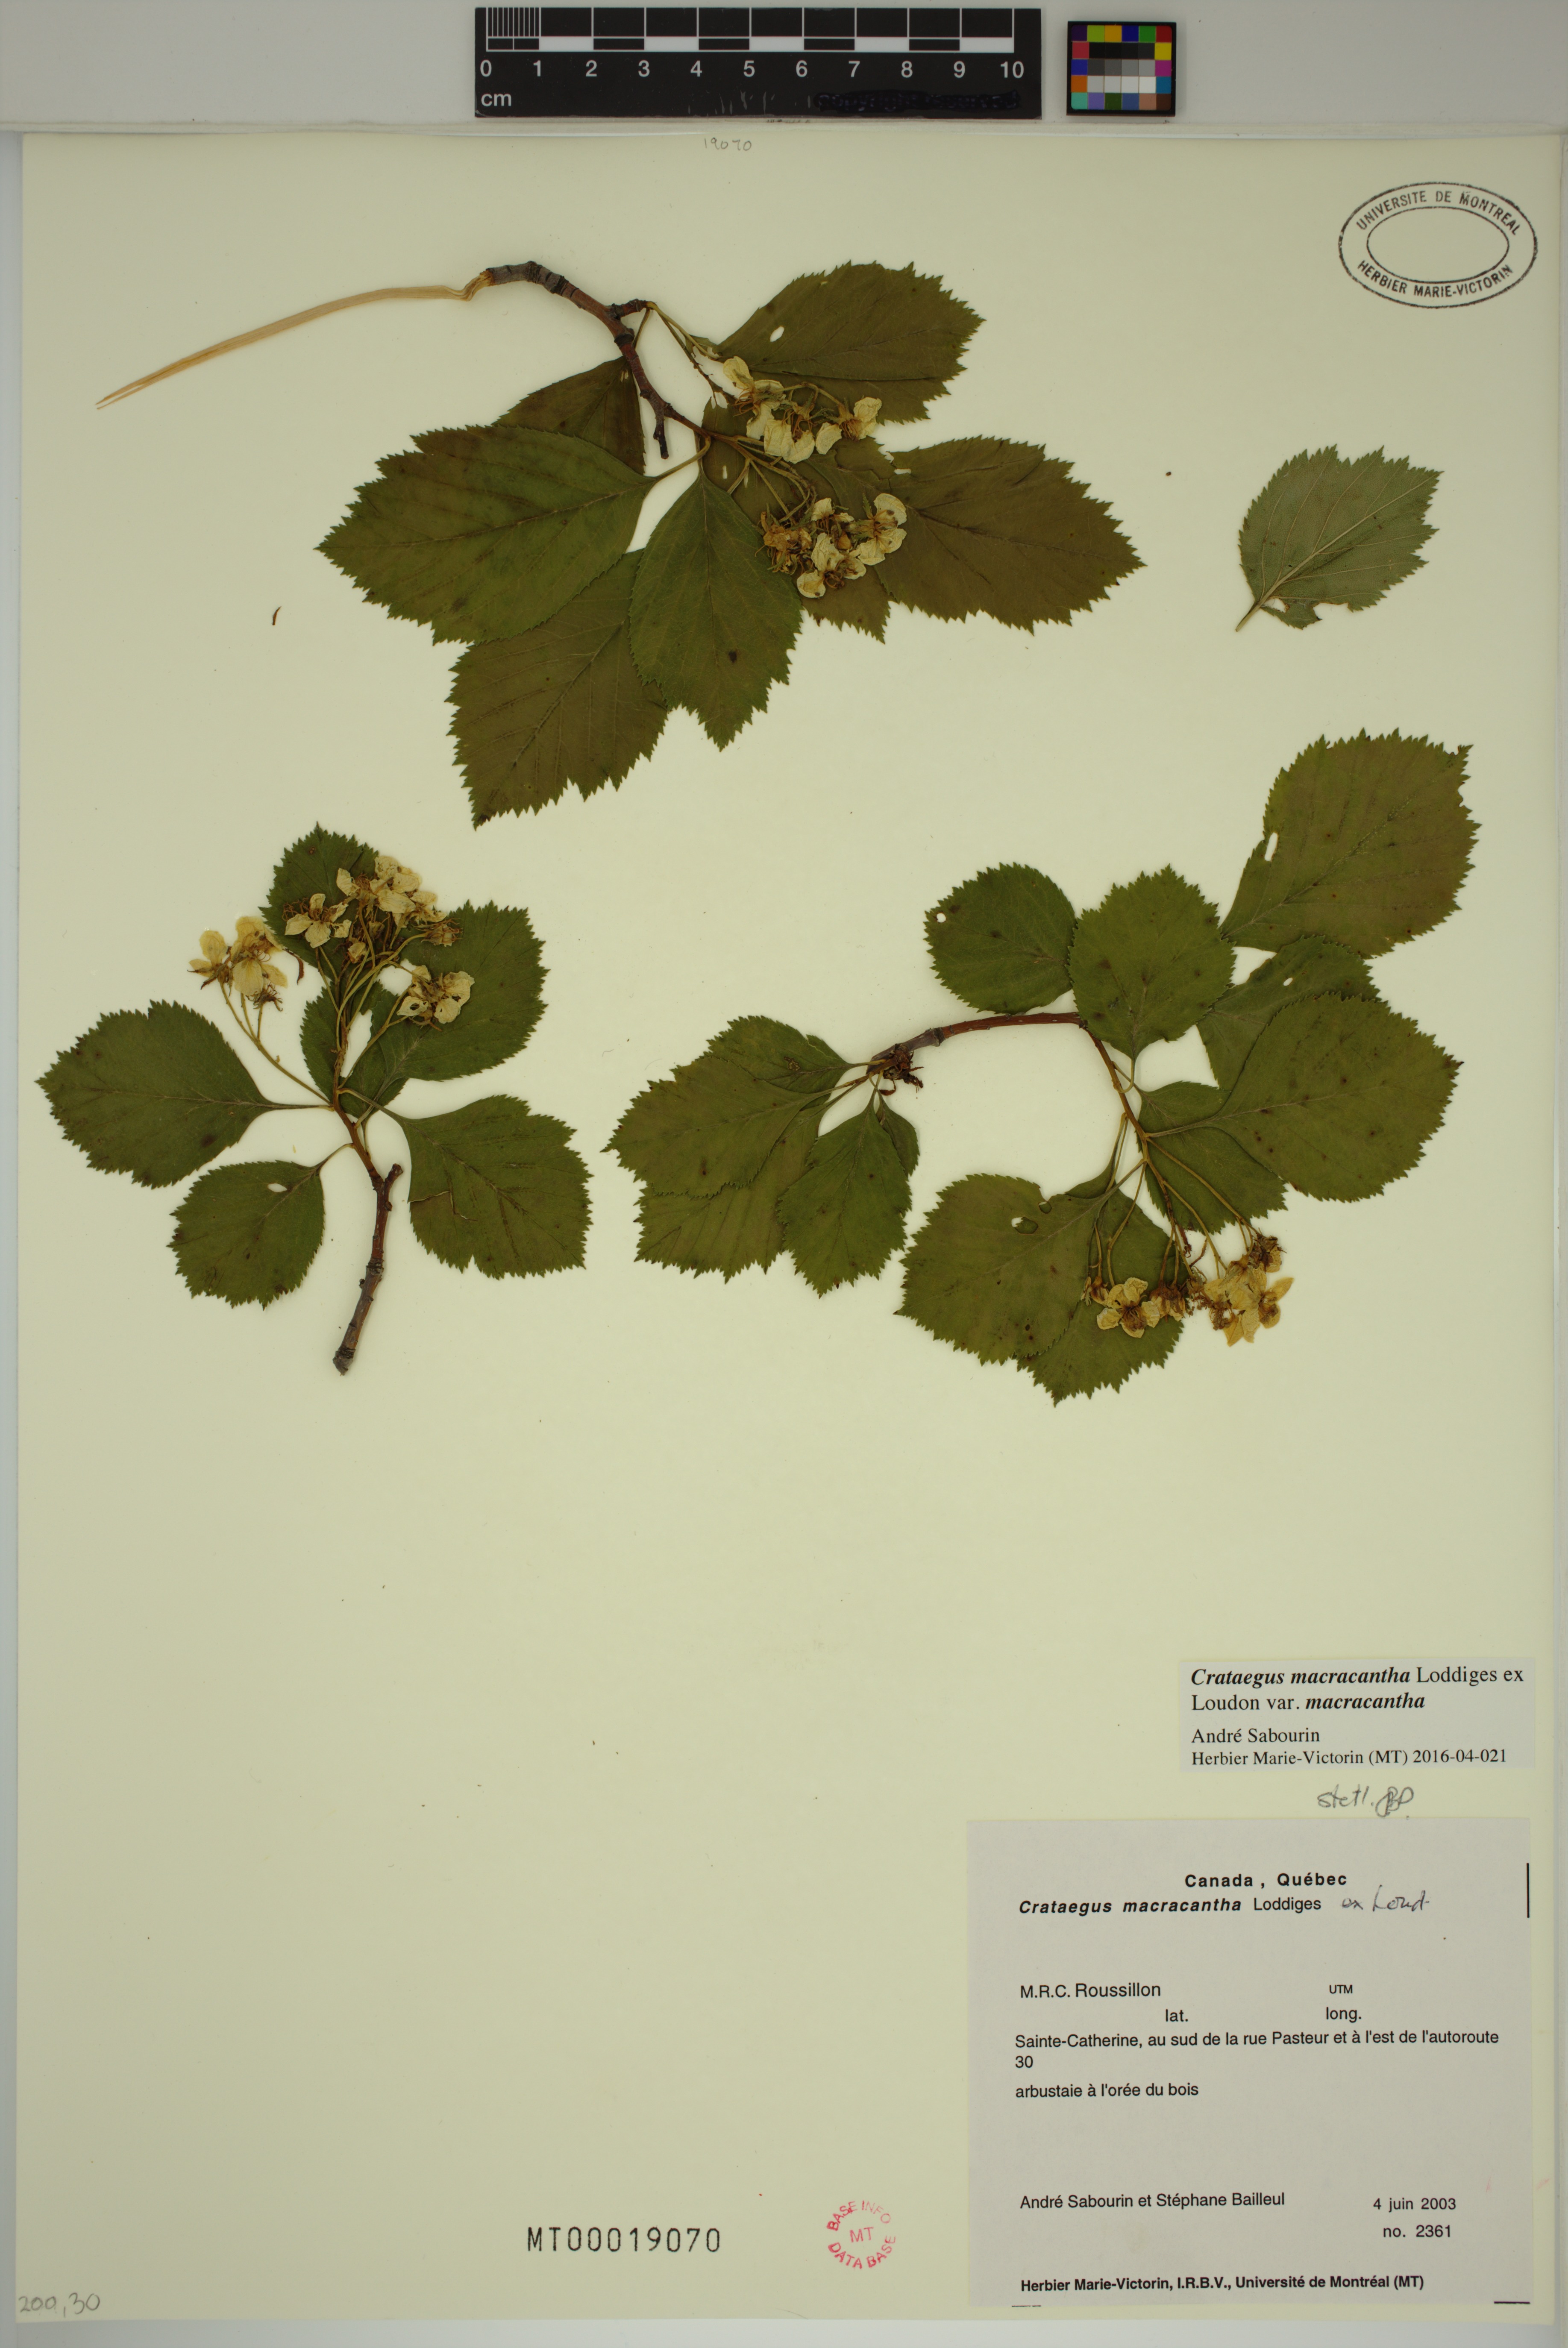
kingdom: Plantae
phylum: Tracheophyta
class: Magnoliopsida
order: Rosales
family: Rosaceae
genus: Crataegus
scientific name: Crataegus macracantha
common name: Large-thorn hawthorn
